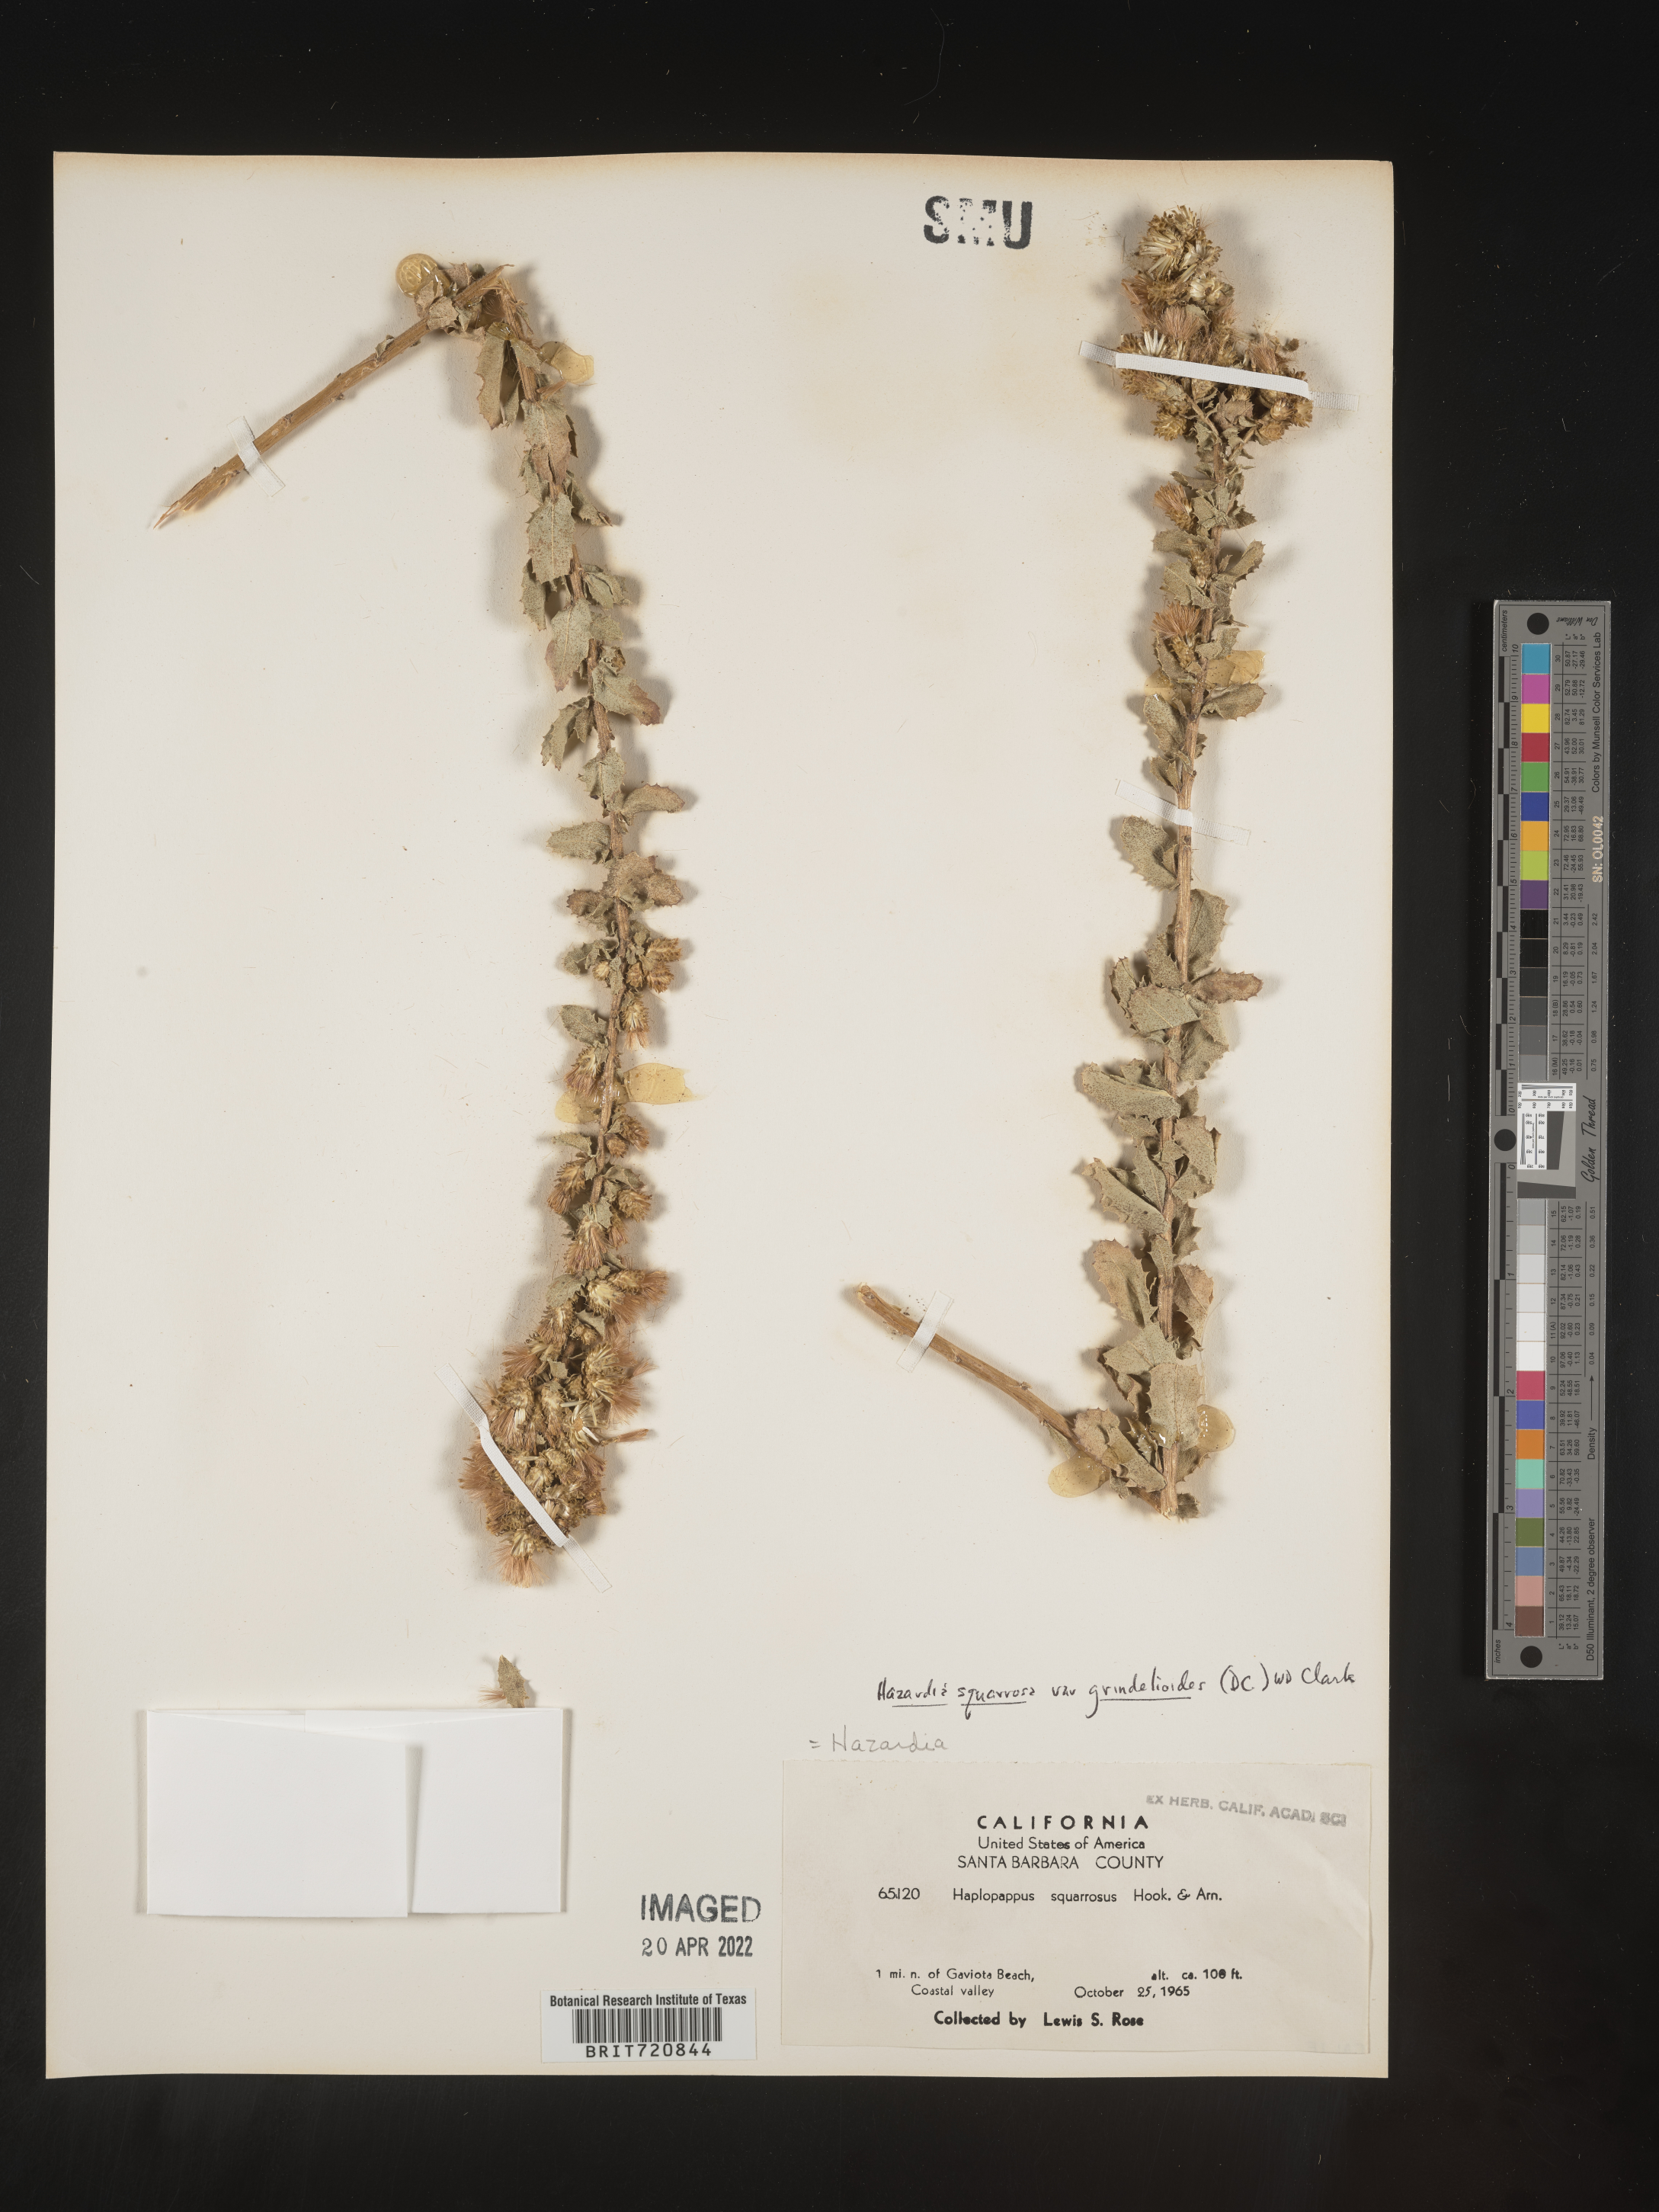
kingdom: Plantae
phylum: Tracheophyta
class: Magnoliopsida
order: Asterales
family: Asteraceae
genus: Hazardia
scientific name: Hazardia squarrosa
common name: Saw-tooth goldenbush
